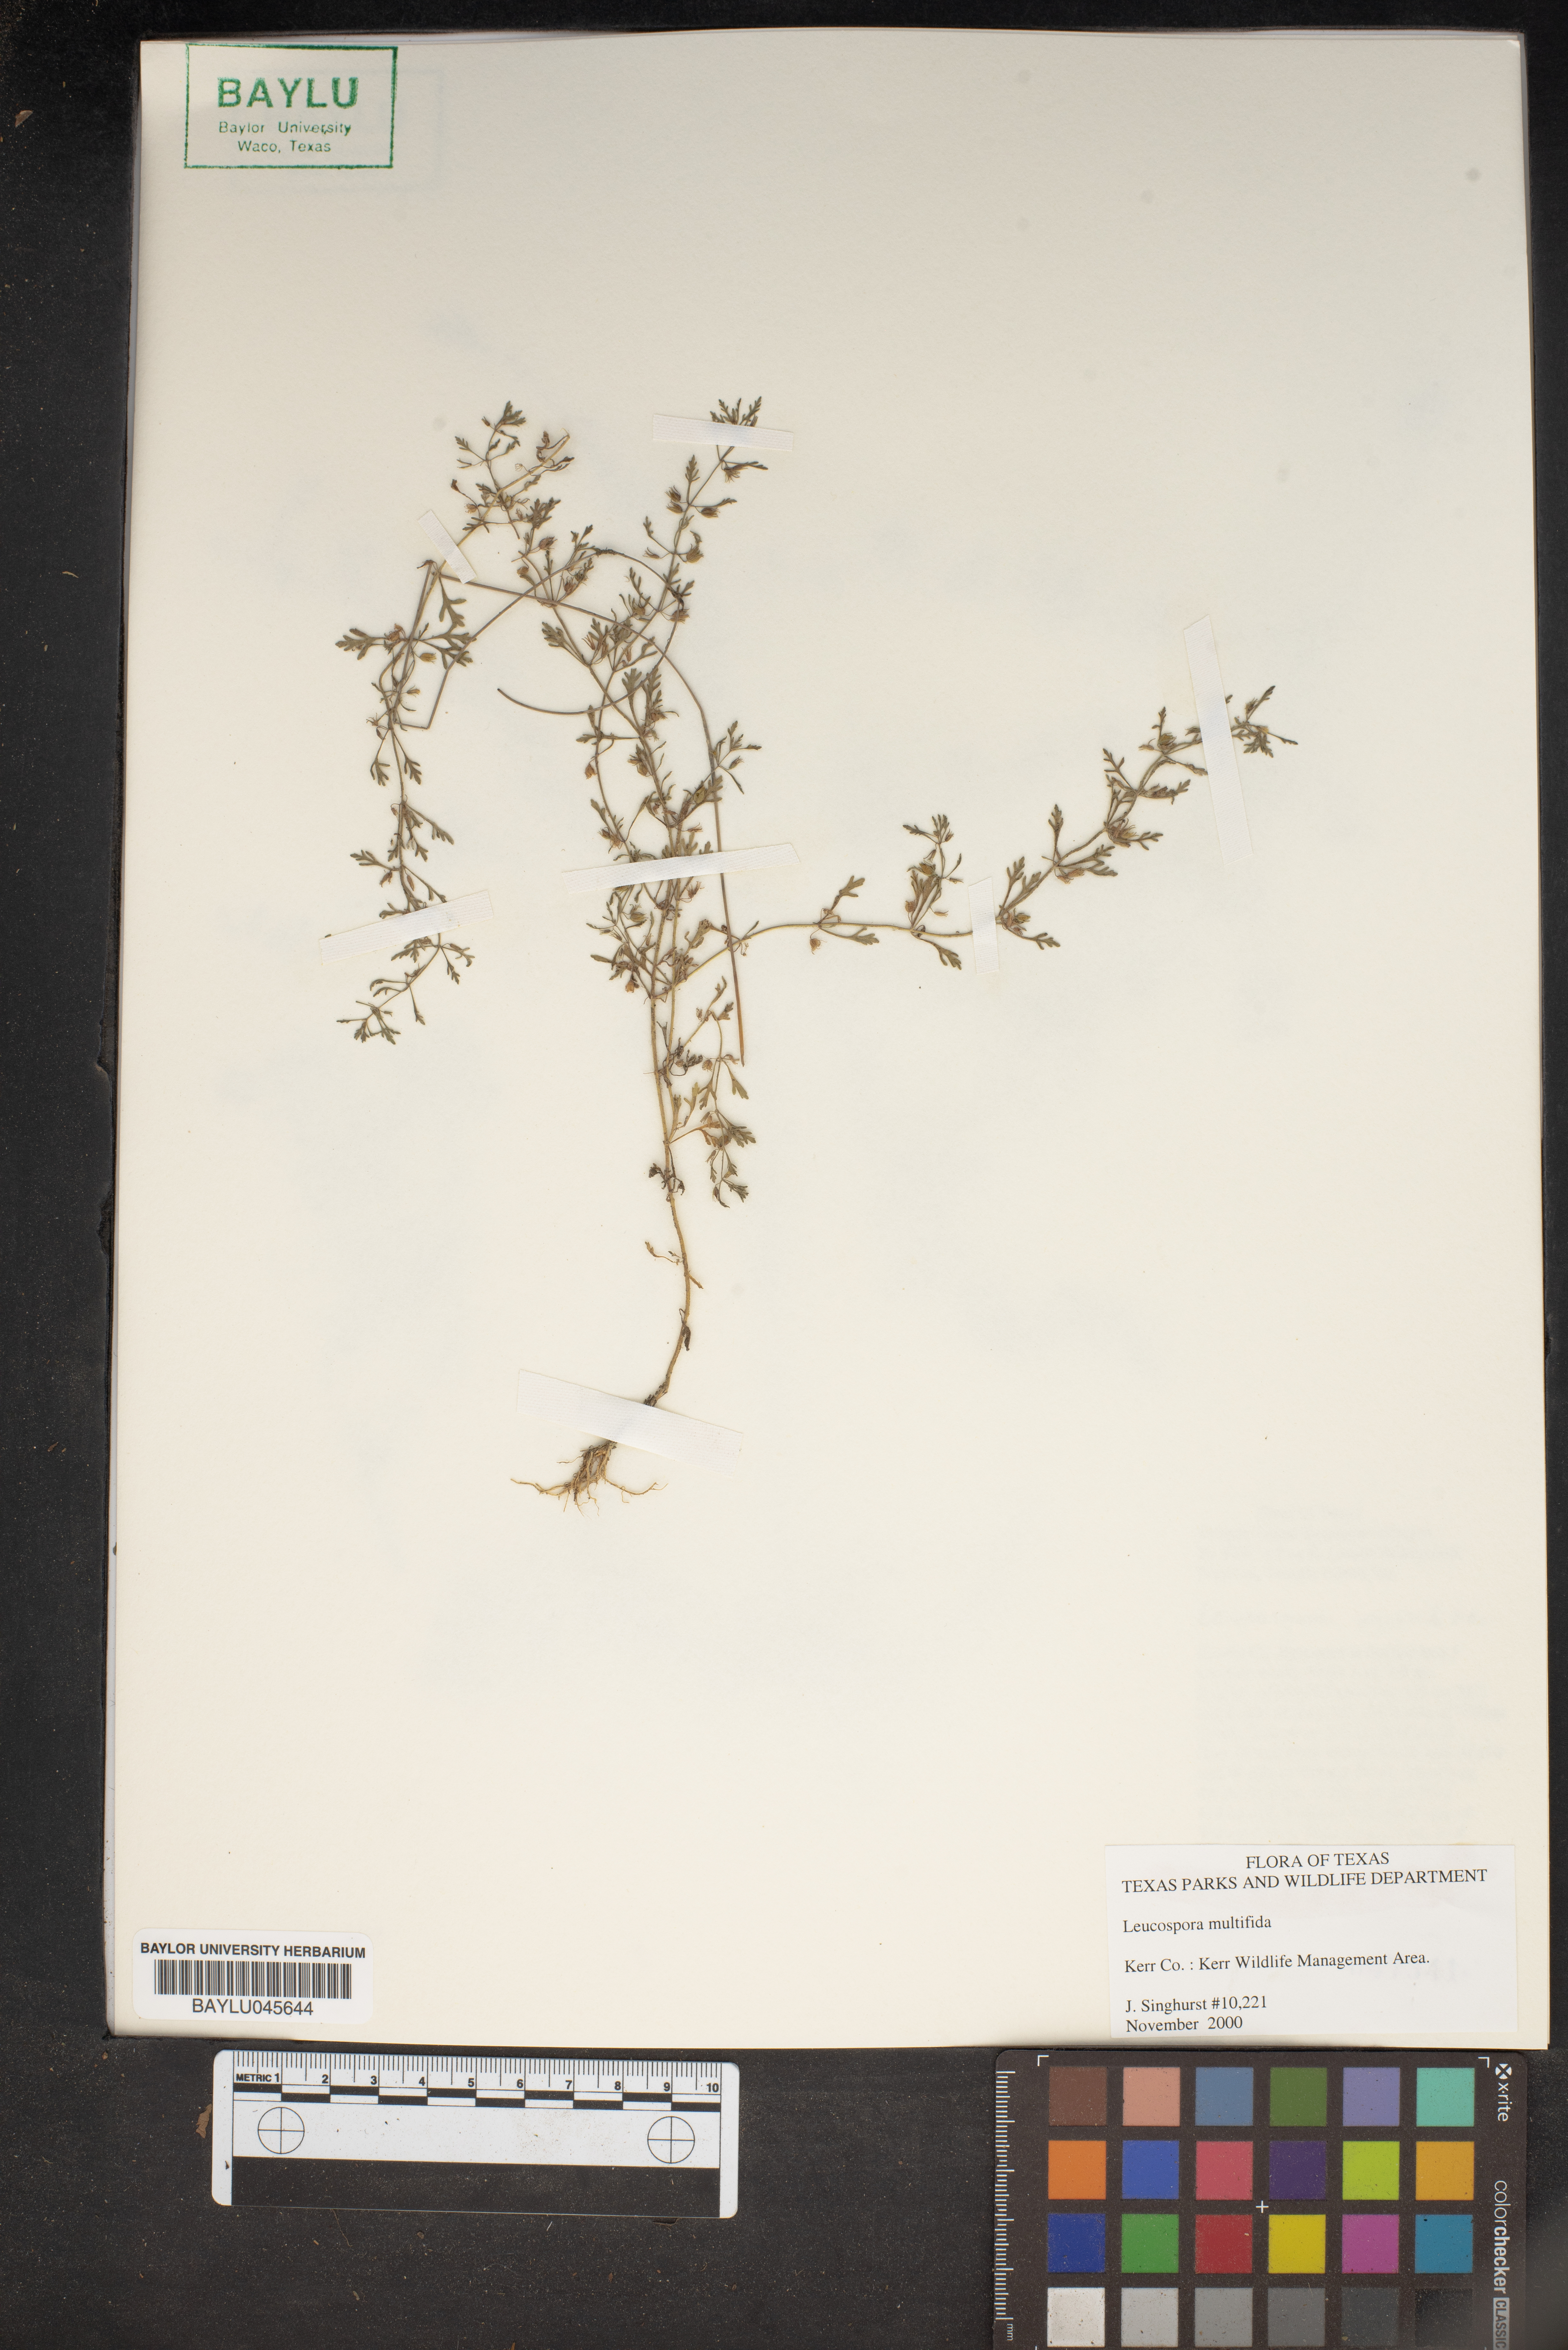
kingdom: Plantae
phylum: Tracheophyta
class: Magnoliopsida
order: Lamiales
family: Plantaginaceae
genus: Leucospora
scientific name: Leucospora multifida
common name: Narrow-leaf paleseed
